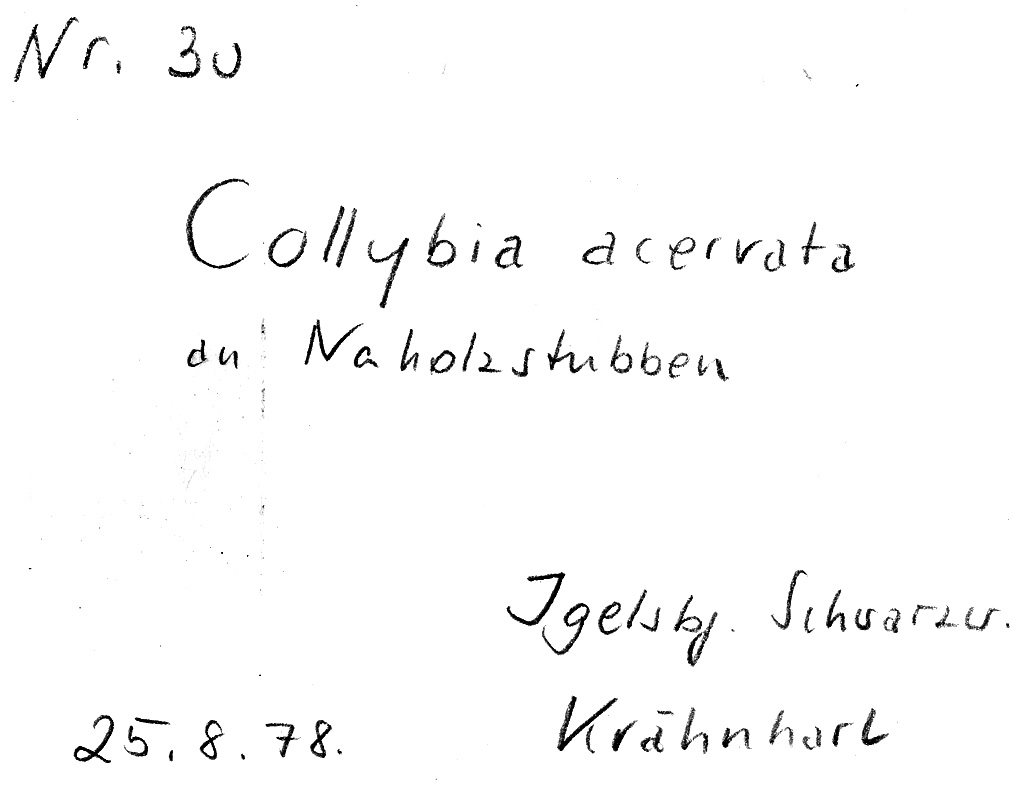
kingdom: Fungi
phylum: Basidiomycota
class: Agaricomycetes
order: Agaricales
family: Omphalotaceae
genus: Gymnopus
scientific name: Gymnopus erythropus
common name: Redleg toughshank
